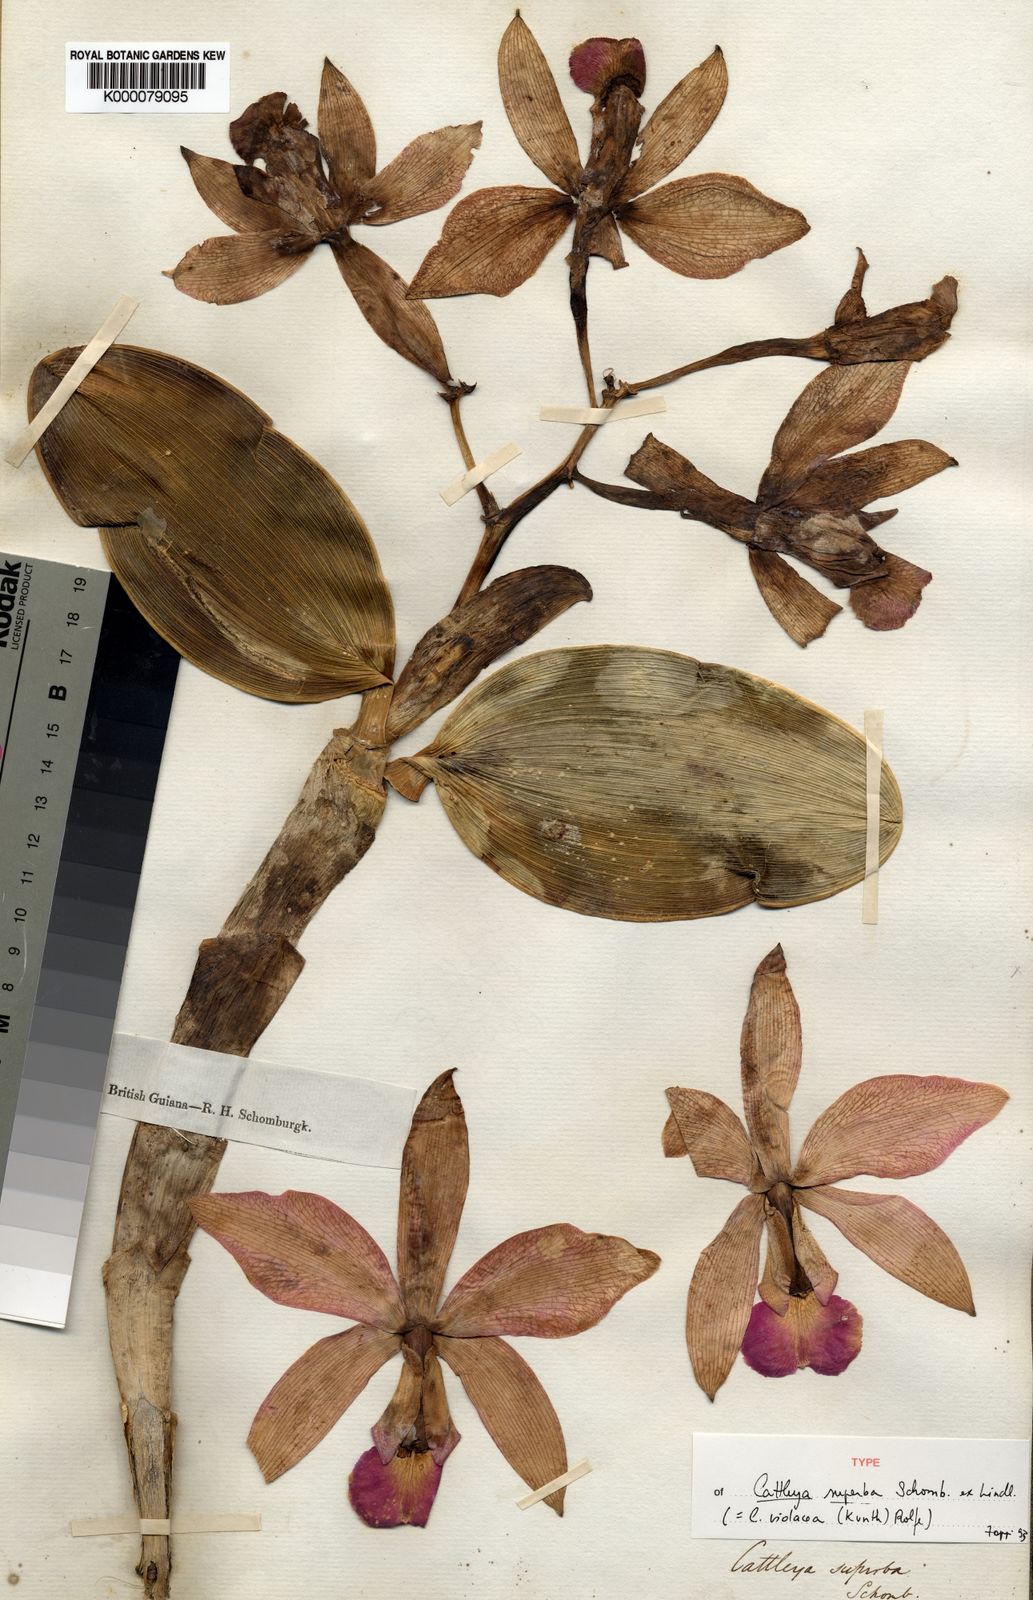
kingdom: Plantae
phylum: Tracheophyta
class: Liliopsida
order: Asparagales
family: Orchidaceae
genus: Cattleya
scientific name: Cattleya violacea
